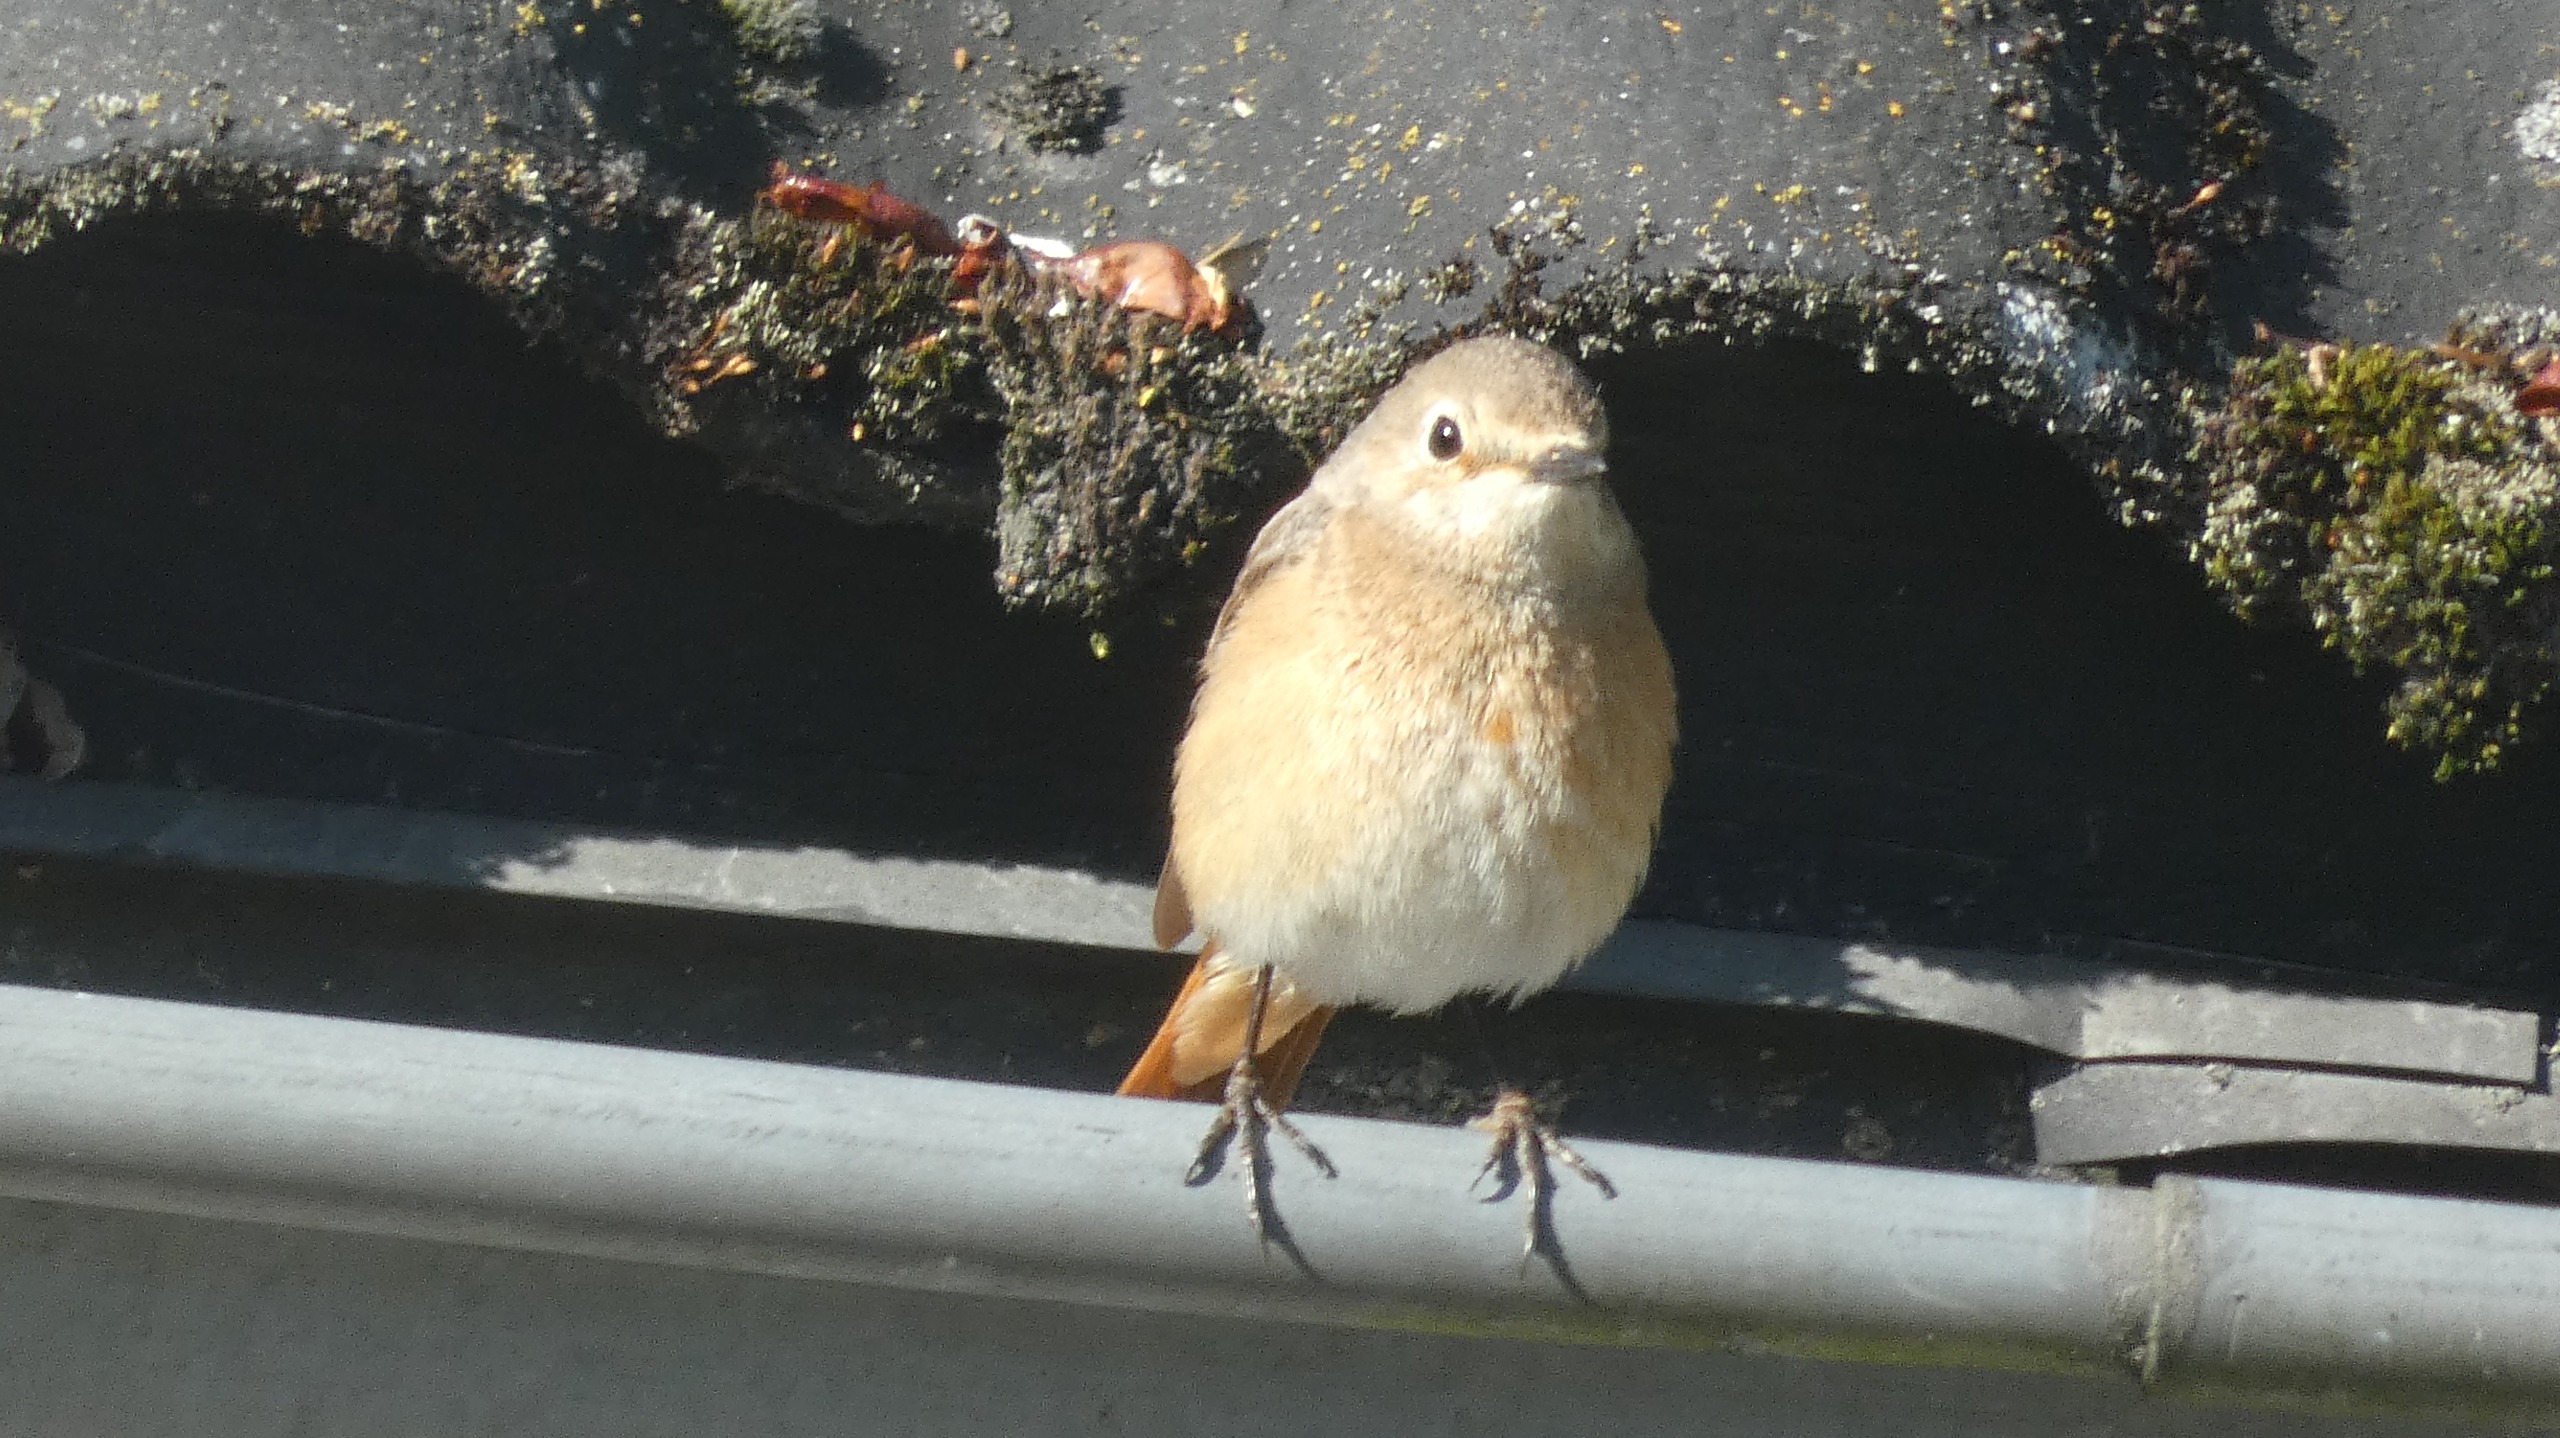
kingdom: Animalia
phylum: Chordata
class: Aves
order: Passeriformes
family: Muscicapidae
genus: Phoenicurus
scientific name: Phoenicurus phoenicurus
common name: Rødstjert
